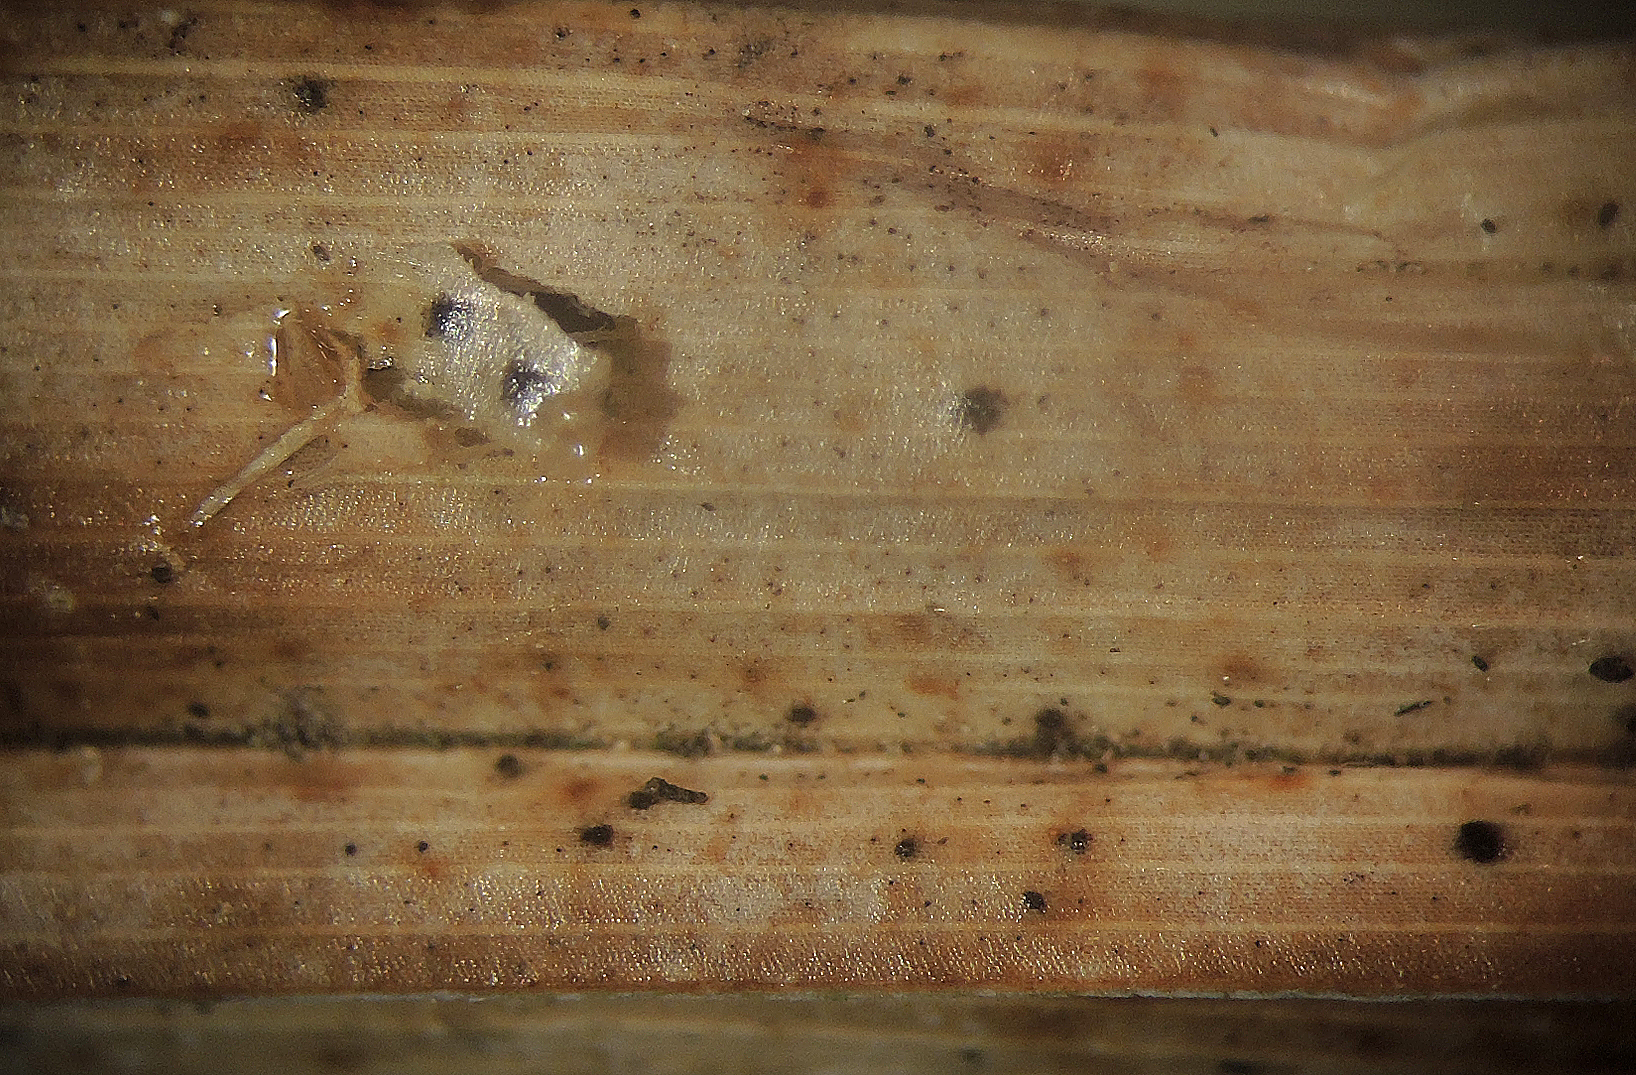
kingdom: Fungi
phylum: Ascomycota
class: Sordariomycetes
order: Amphisphaeriales
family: Amphisphaeriaceae
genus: Ceriophora
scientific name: Ceriophora palustris
